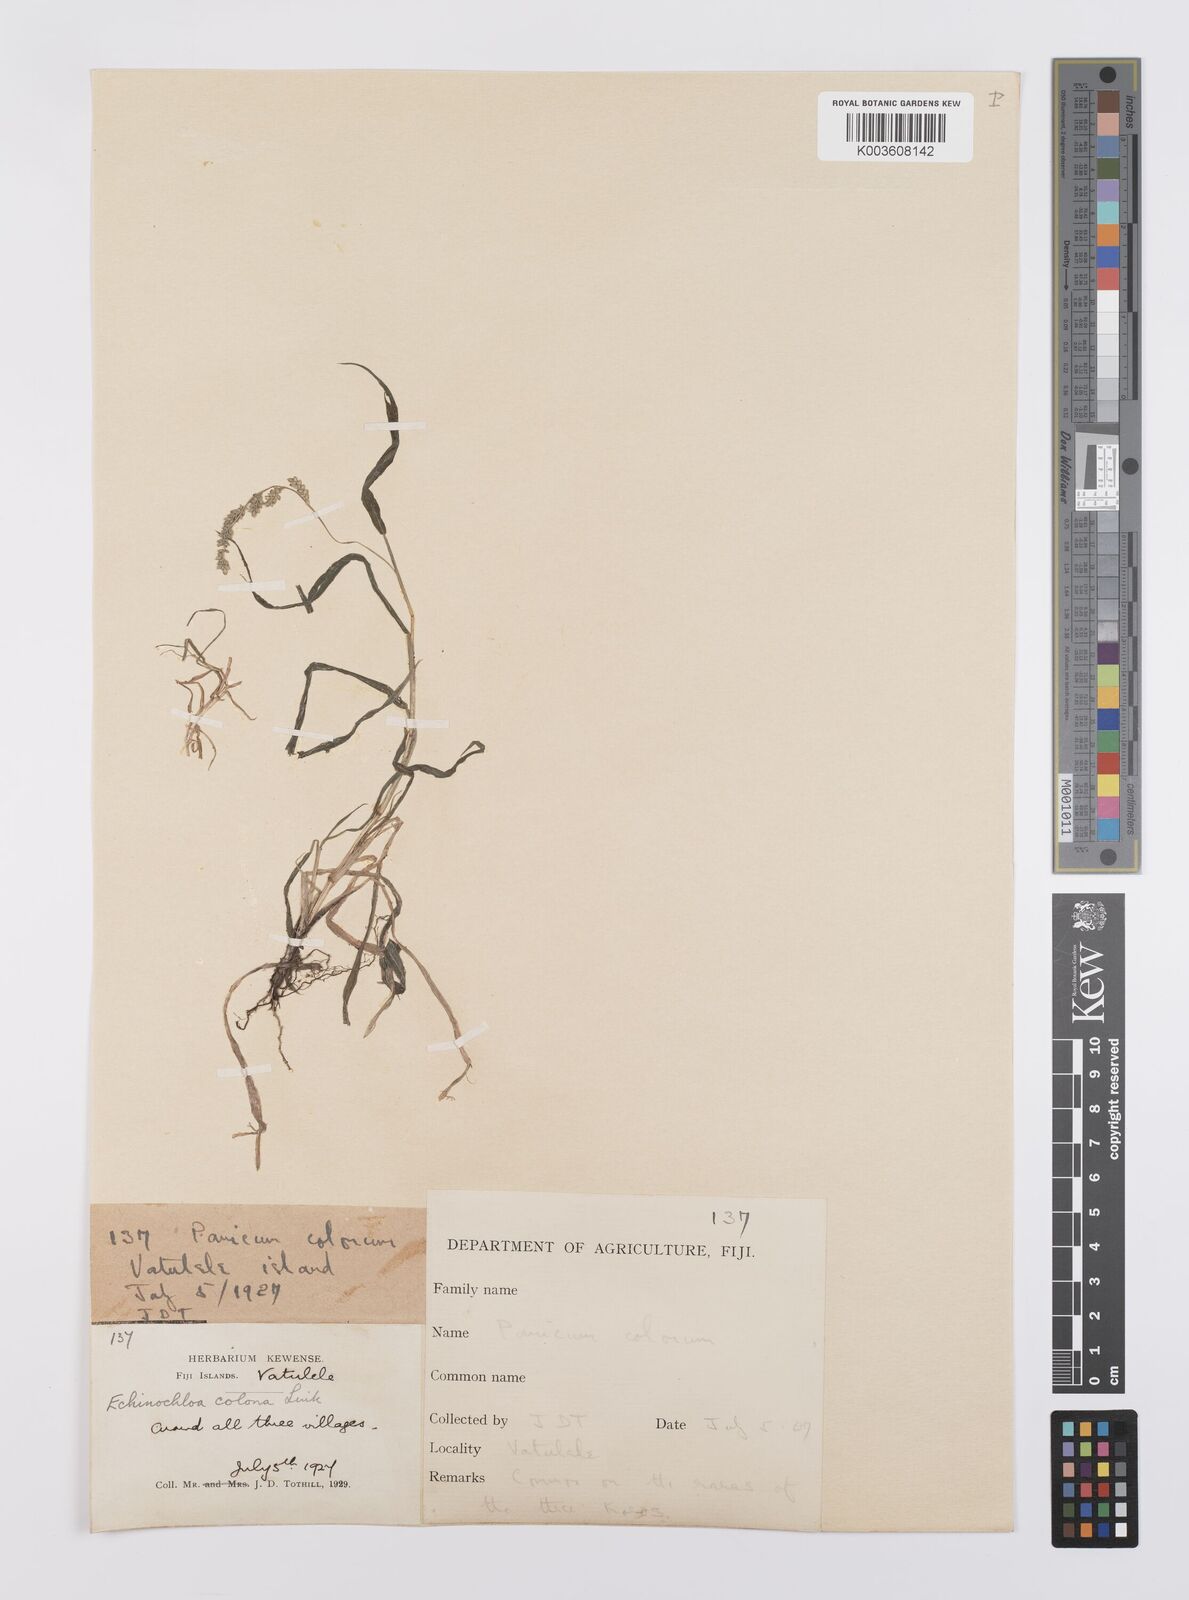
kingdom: Plantae
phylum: Tracheophyta
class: Liliopsida
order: Poales
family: Poaceae
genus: Echinochloa
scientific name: Echinochloa colonum
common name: Jungle rice
